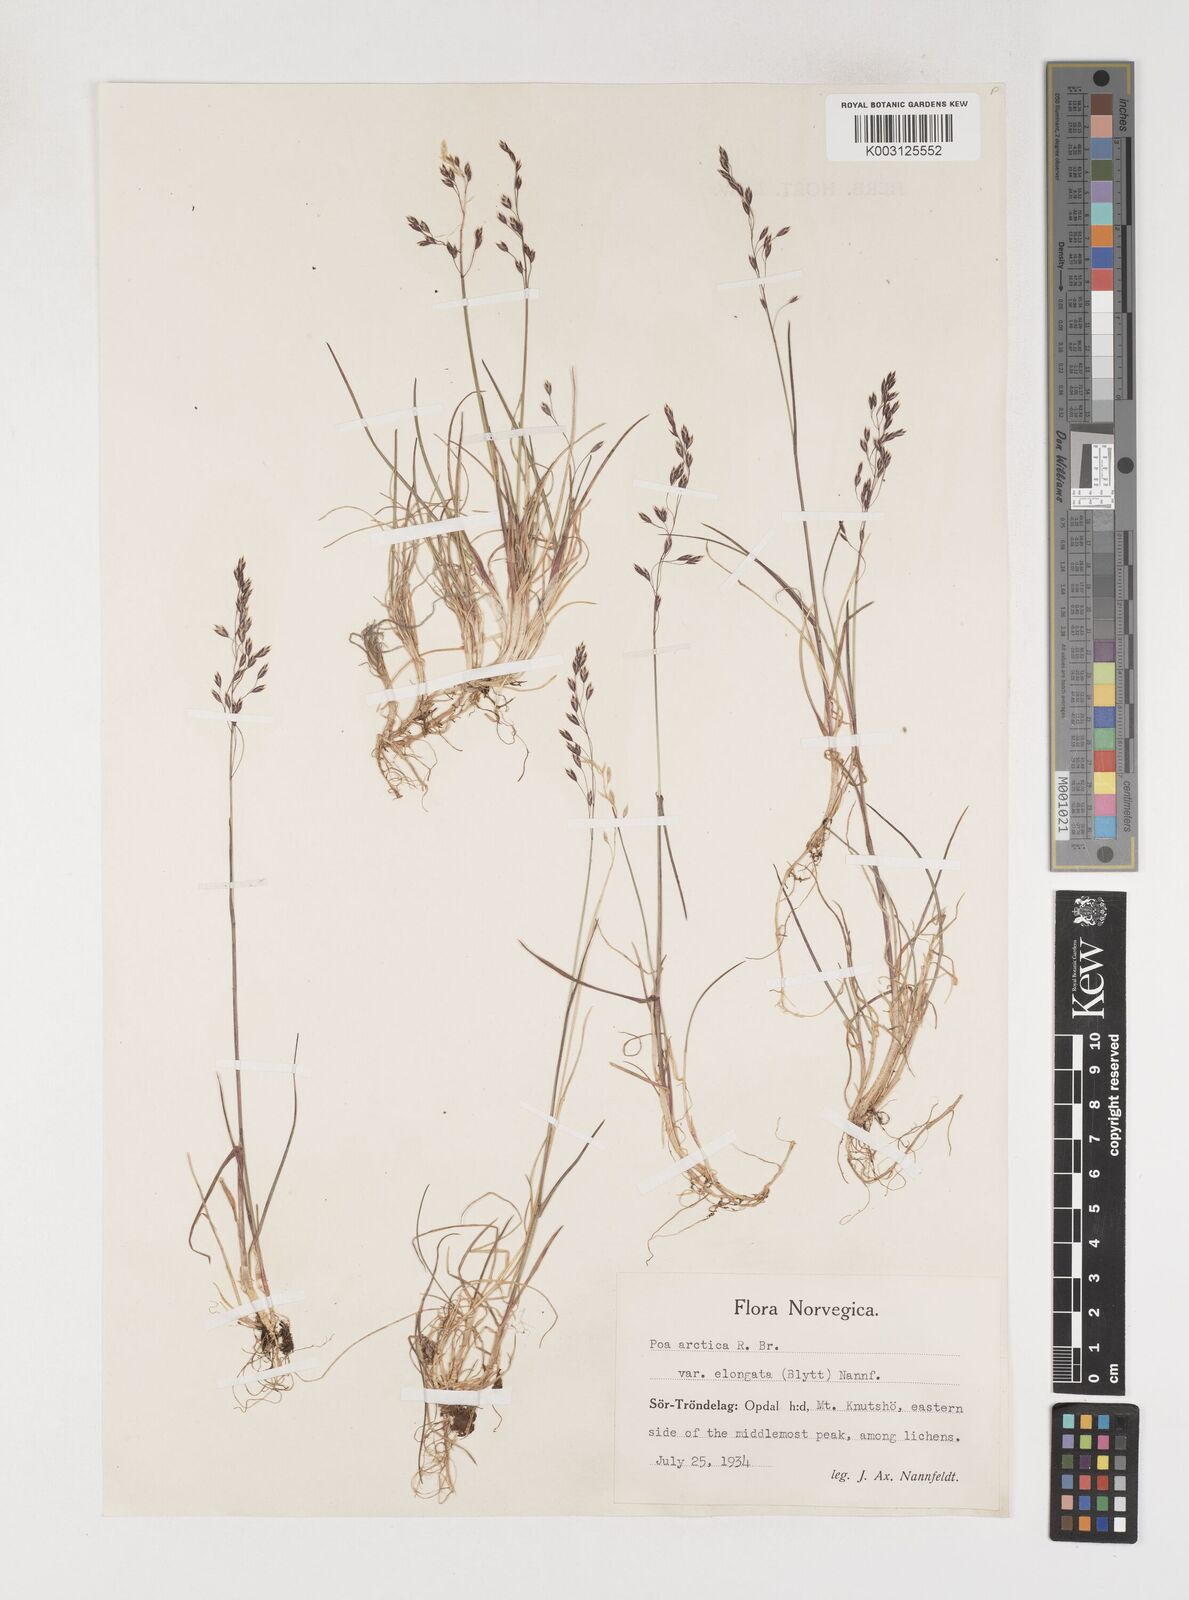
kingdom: Plantae
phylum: Tracheophyta
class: Liliopsida
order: Poales
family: Poaceae
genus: Poa
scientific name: Poa arctica
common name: Arctic bluegrass
